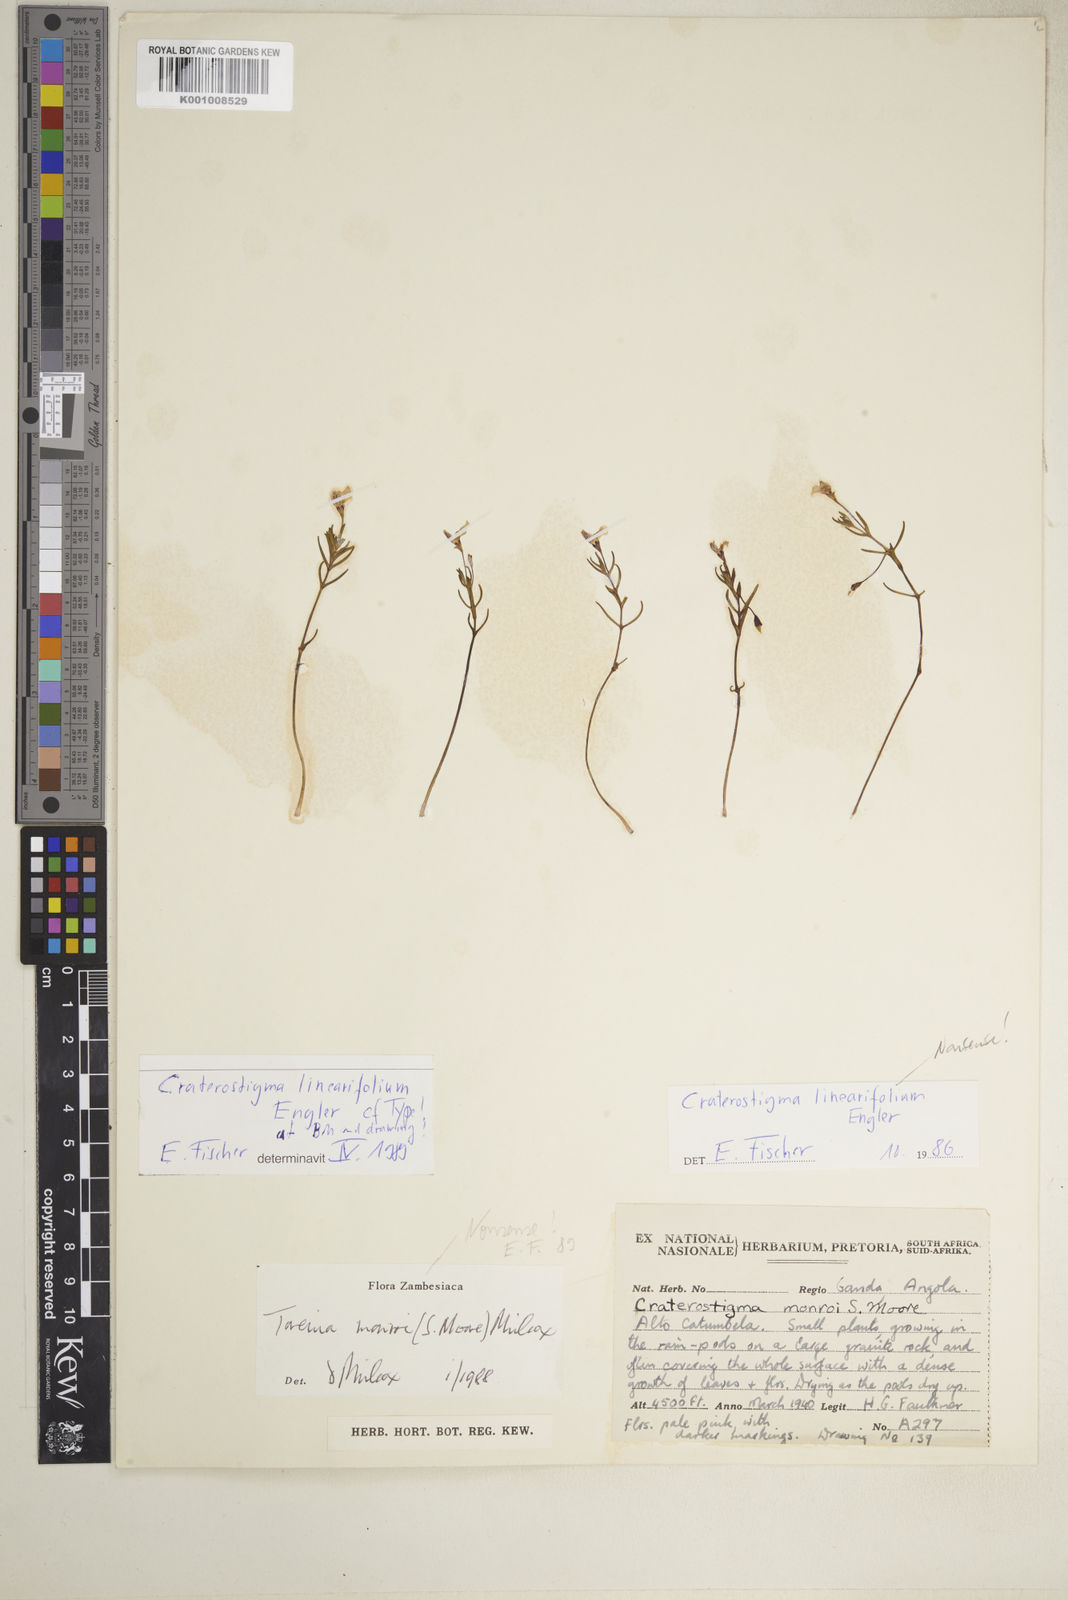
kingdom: Plantae
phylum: Tracheophyta
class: Magnoliopsida
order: Lamiales
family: Linderniaceae
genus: Lindernia
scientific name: Lindernia linearifolia
